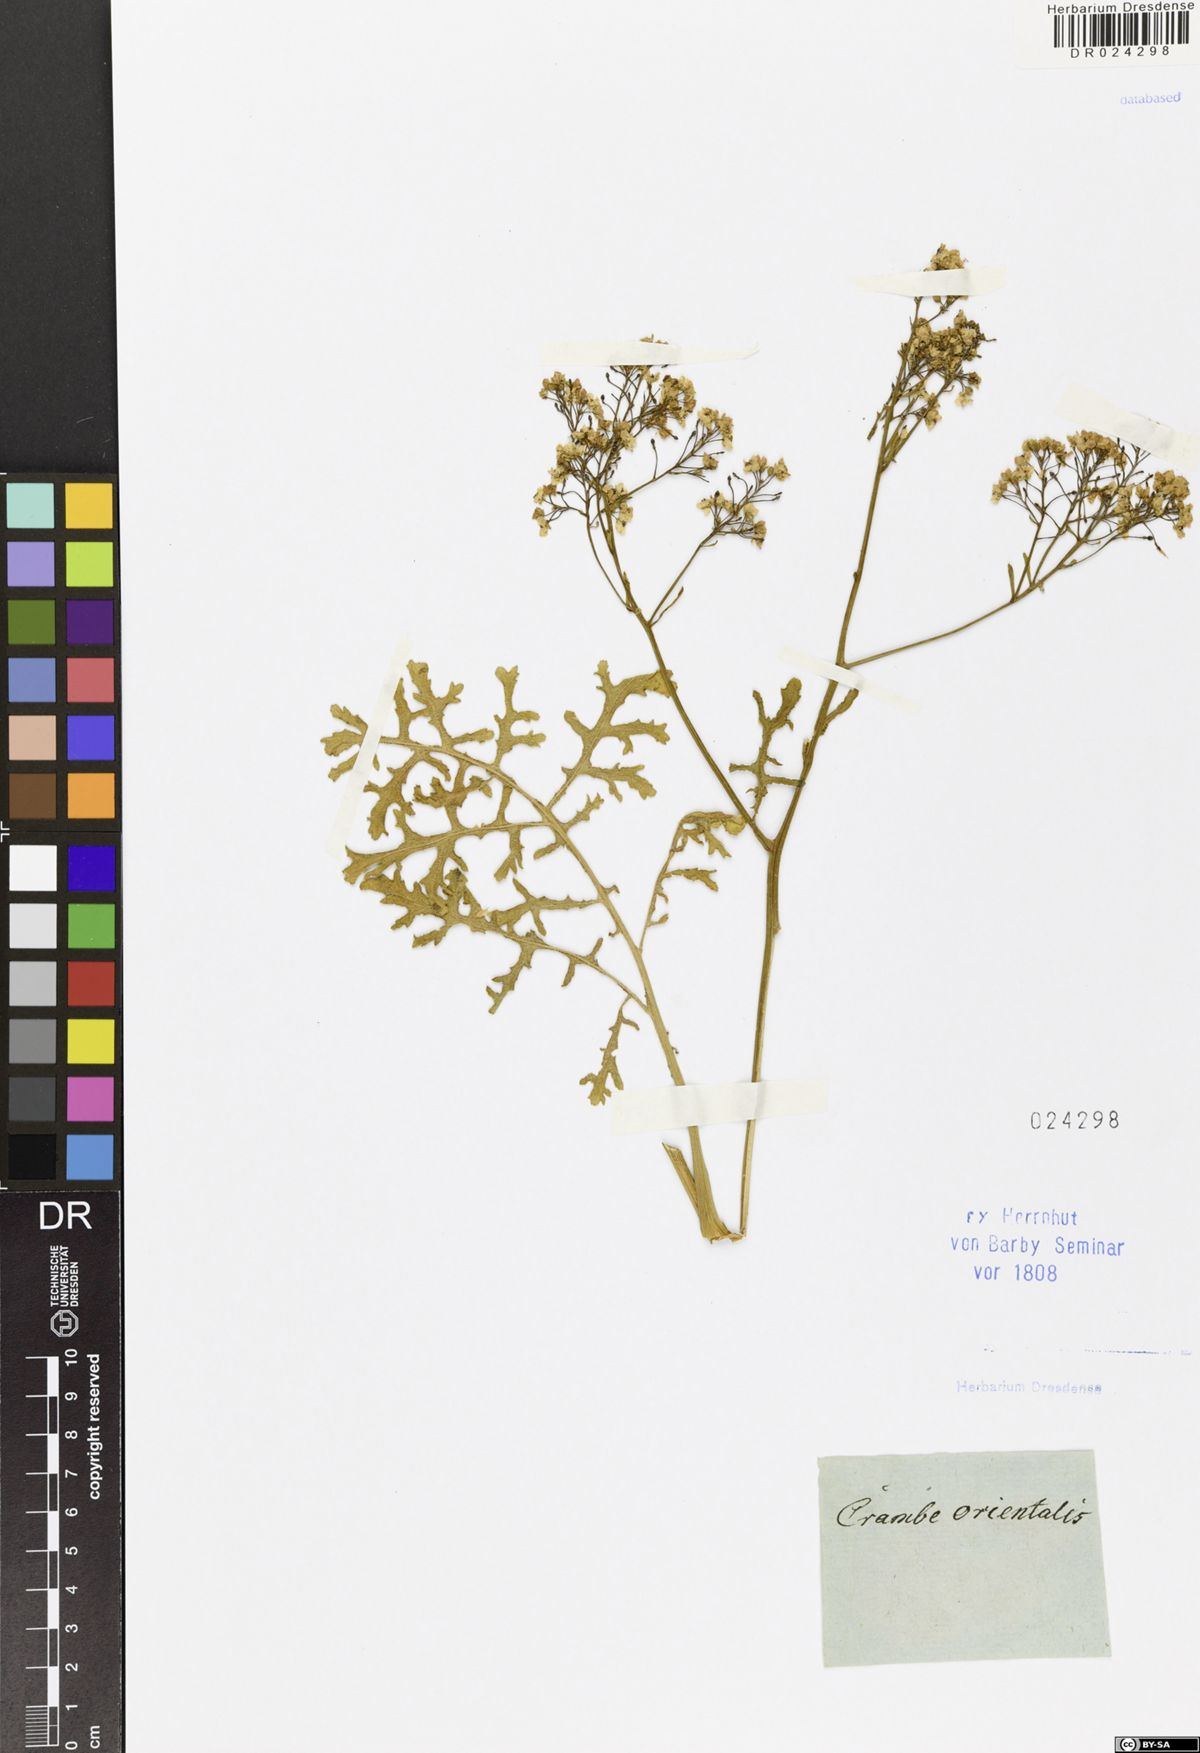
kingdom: Plantae
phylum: Tracheophyta
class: Magnoliopsida
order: Brassicales
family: Brassicaceae
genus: Crambe
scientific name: Crambe aspera
